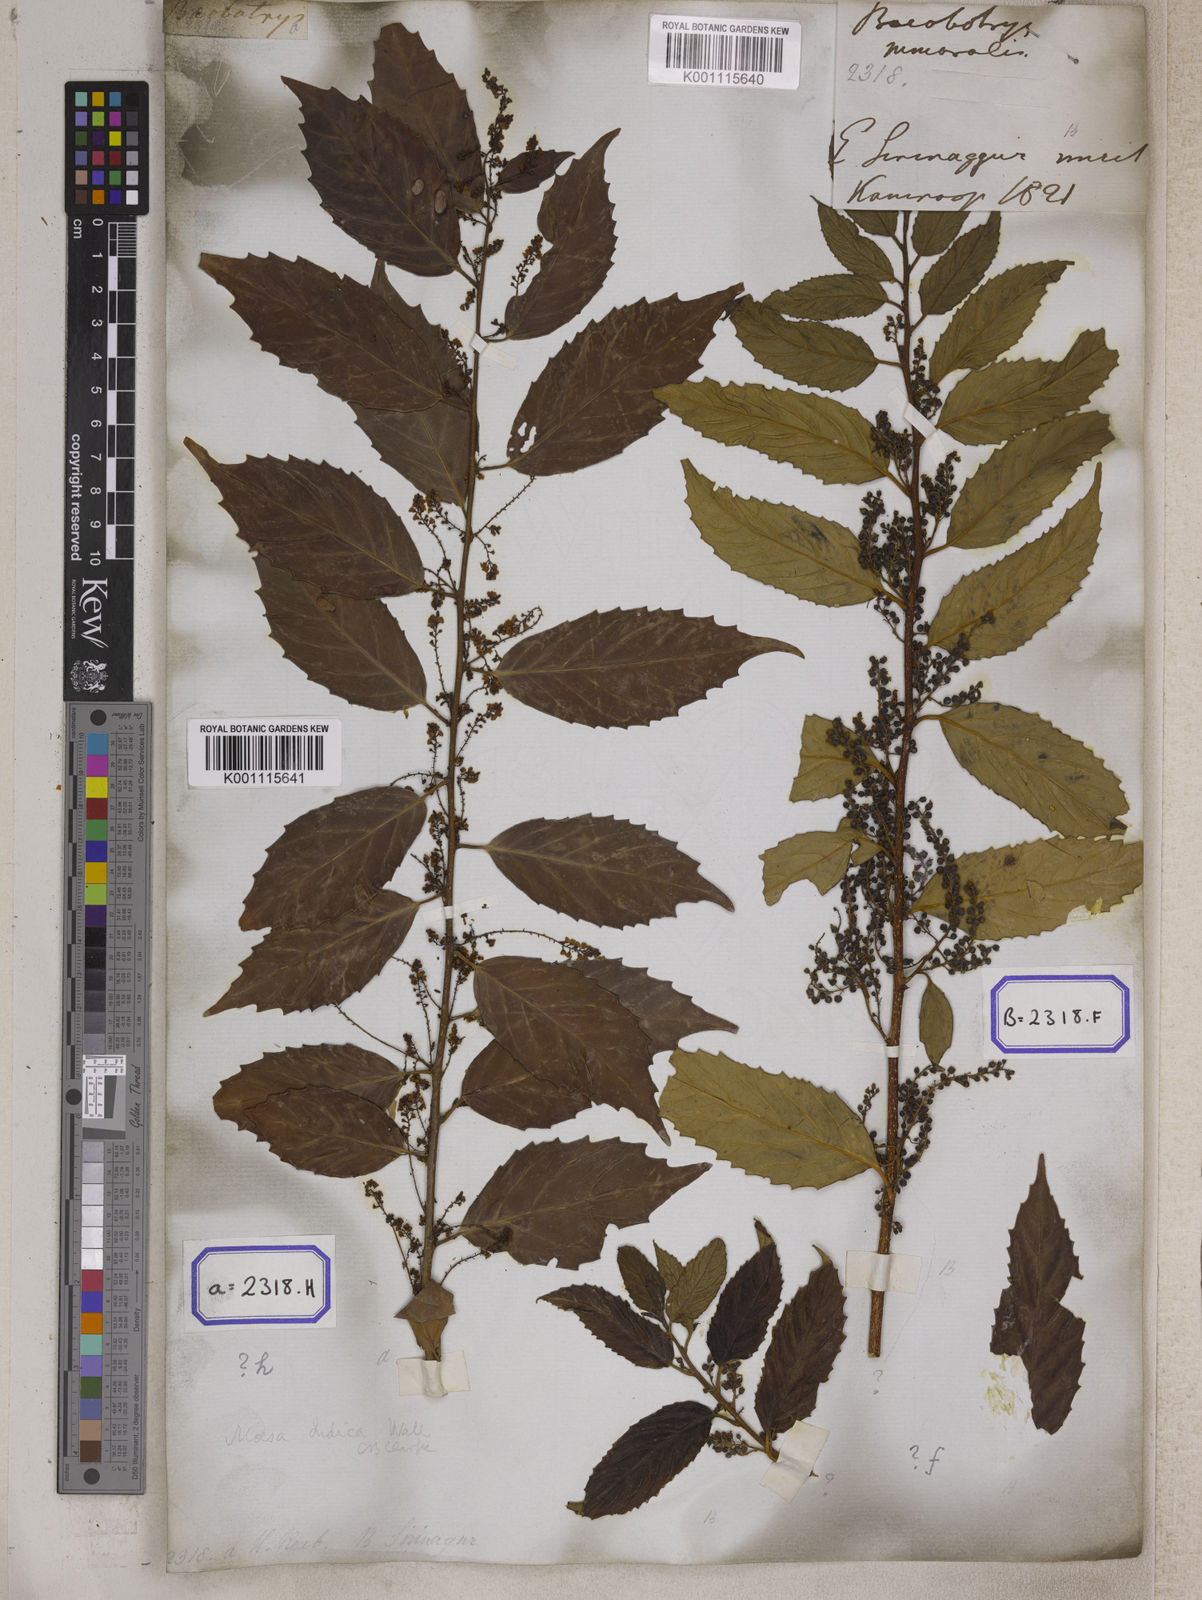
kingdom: Plantae
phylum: Tracheophyta
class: Magnoliopsida
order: Ericales
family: Primulaceae
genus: Maesa
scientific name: Maesa indica
